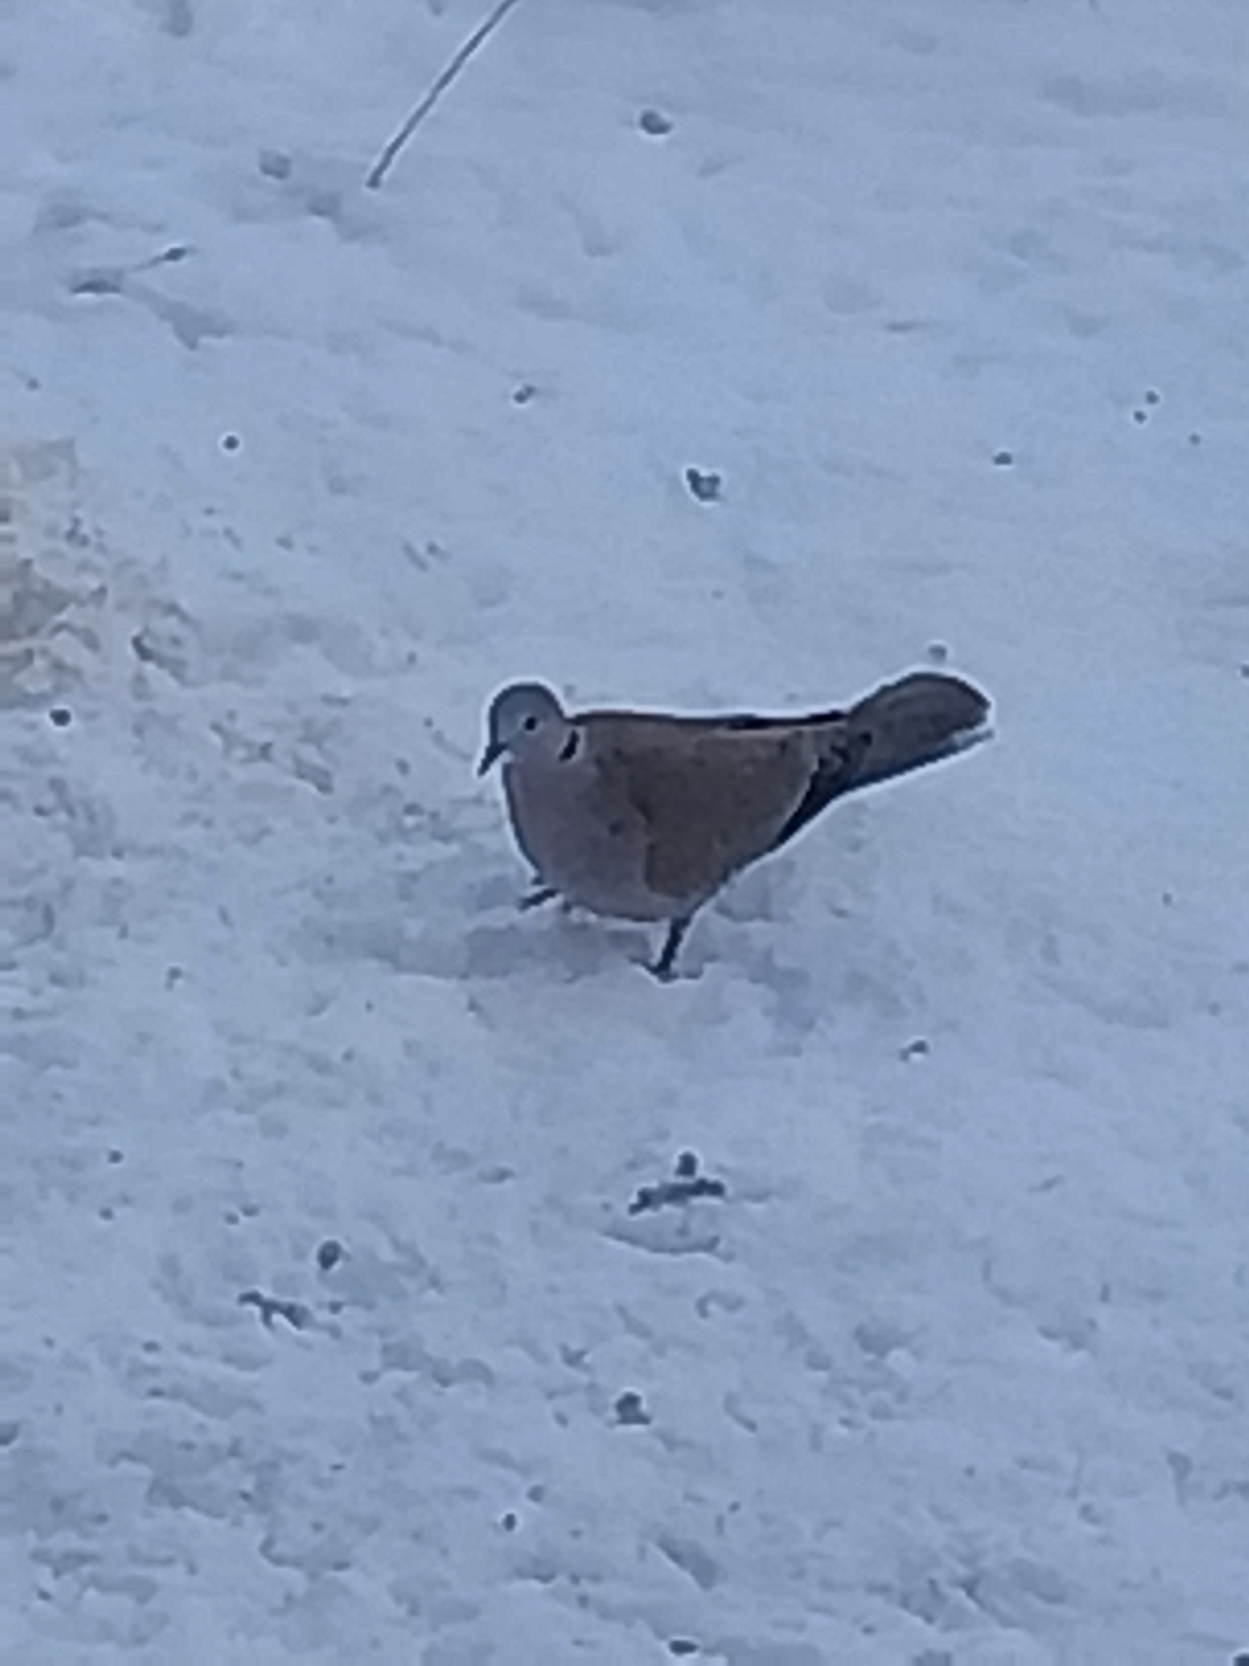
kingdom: Animalia
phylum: Chordata
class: Aves
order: Columbiformes
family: Columbidae
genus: Streptopelia
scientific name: Streptopelia decaocto
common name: Tyrkerdue
